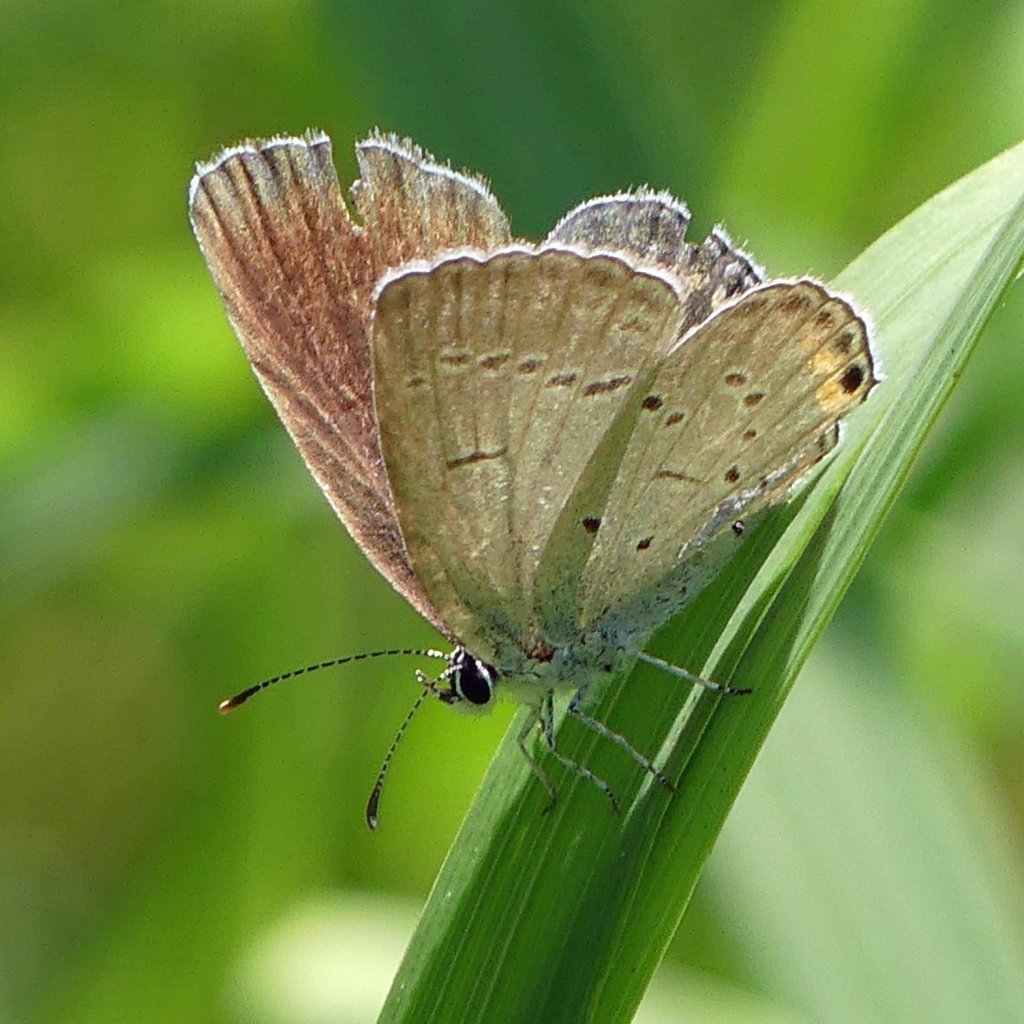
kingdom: Animalia
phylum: Arthropoda
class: Insecta
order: Lepidoptera
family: Lycaenidae
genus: Elkalyce
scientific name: Elkalyce comyntas
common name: Eastern Tailed-Blue
